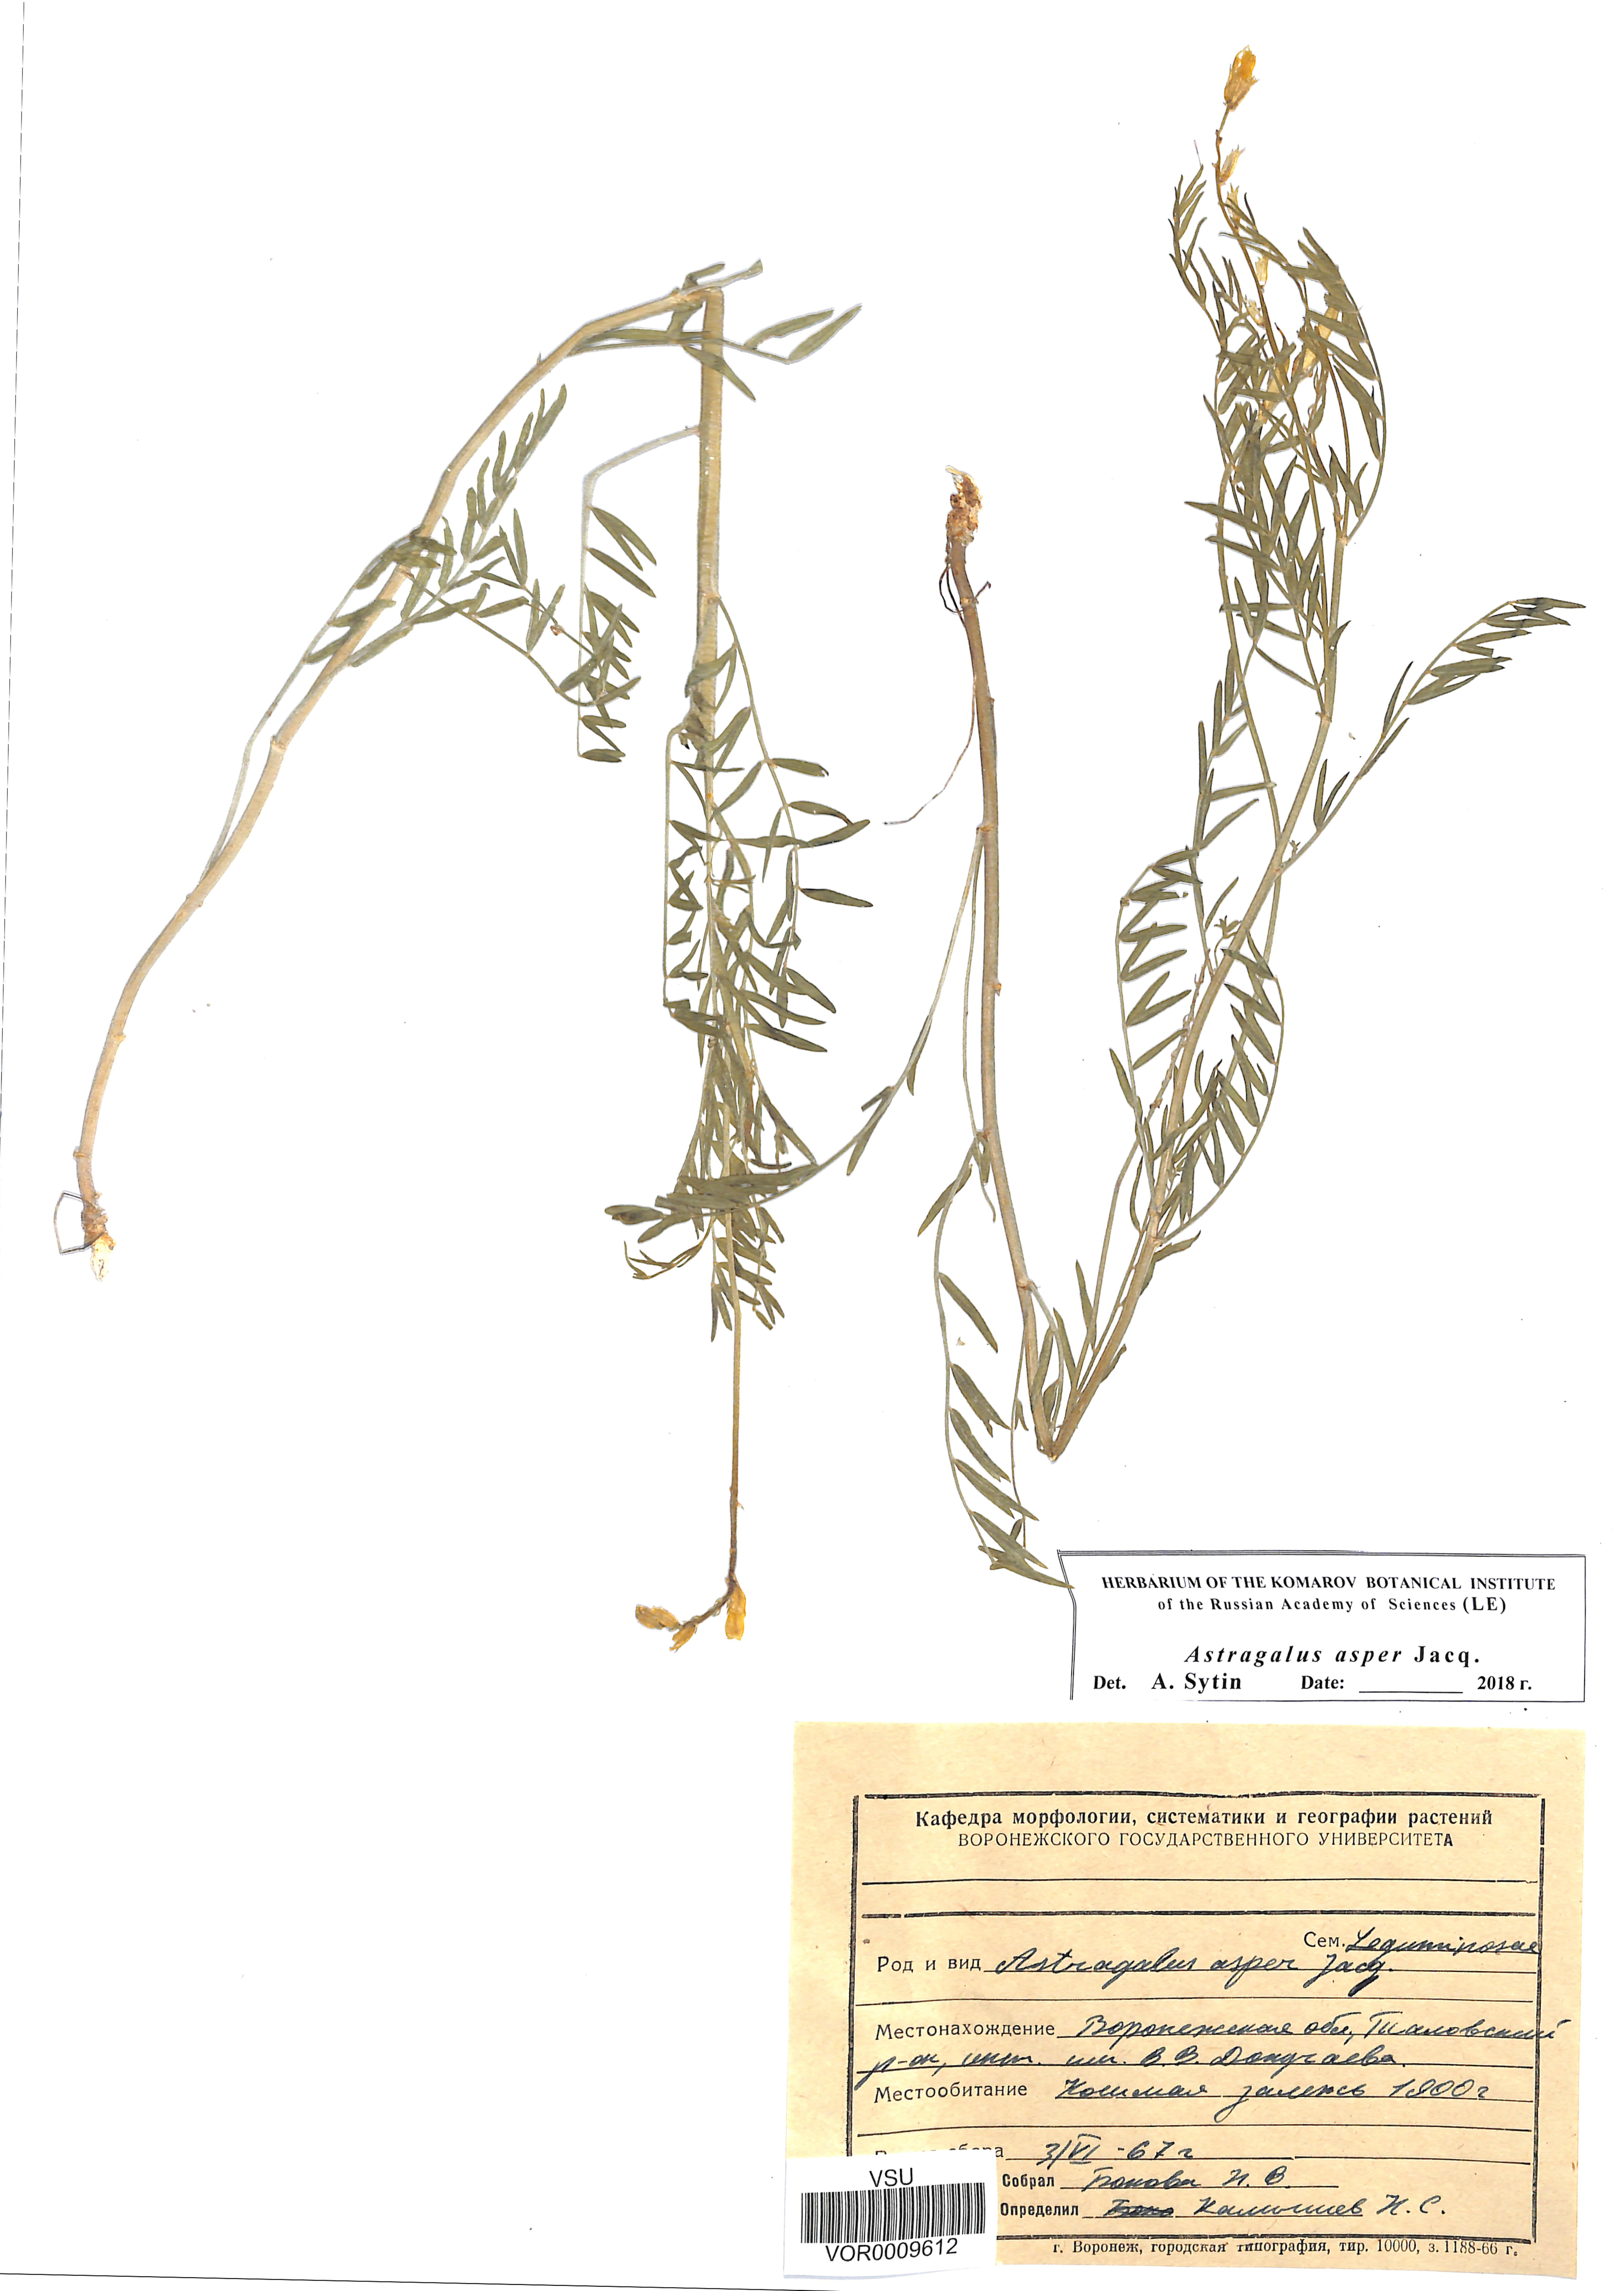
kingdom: Plantae
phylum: Tracheophyta
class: Magnoliopsida
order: Fabales
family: Fabaceae
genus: Astragalus
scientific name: Astragalus asper
